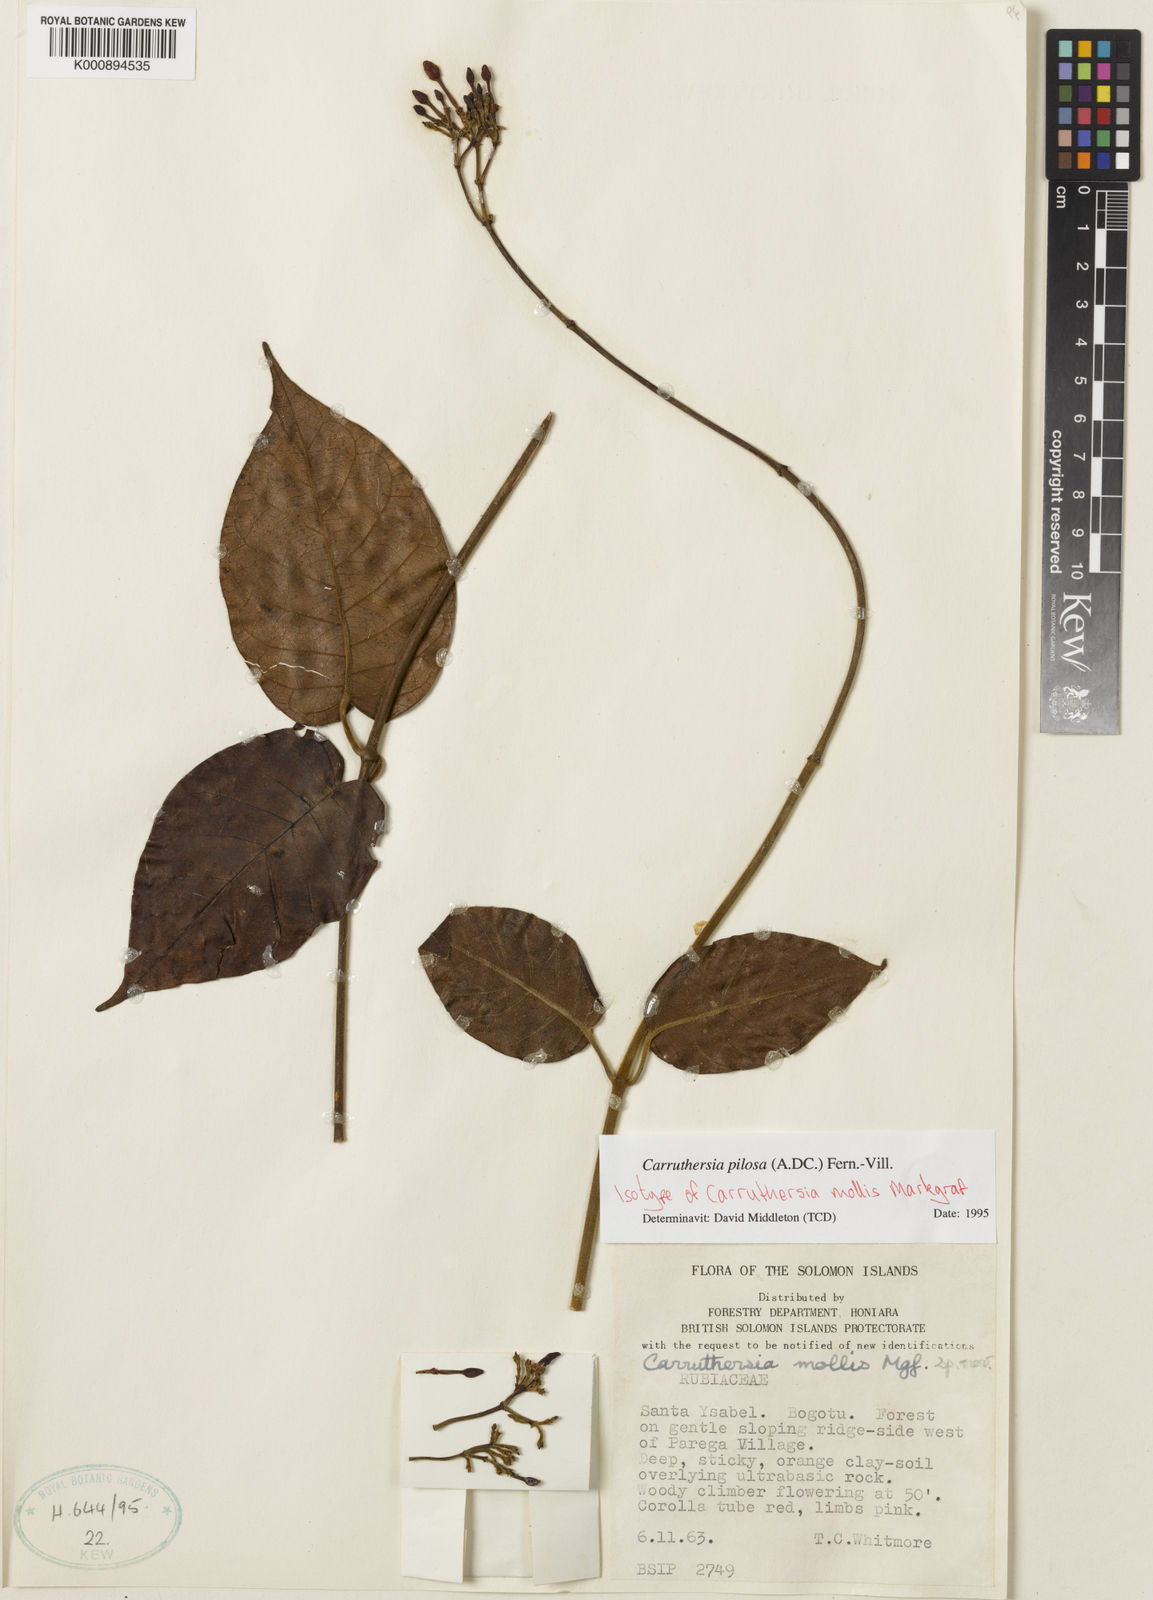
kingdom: Plantae
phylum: Tracheophyta
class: Magnoliopsida
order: Gentianales
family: Apocynaceae
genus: Carruthersia
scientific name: Carruthersia pilosa
